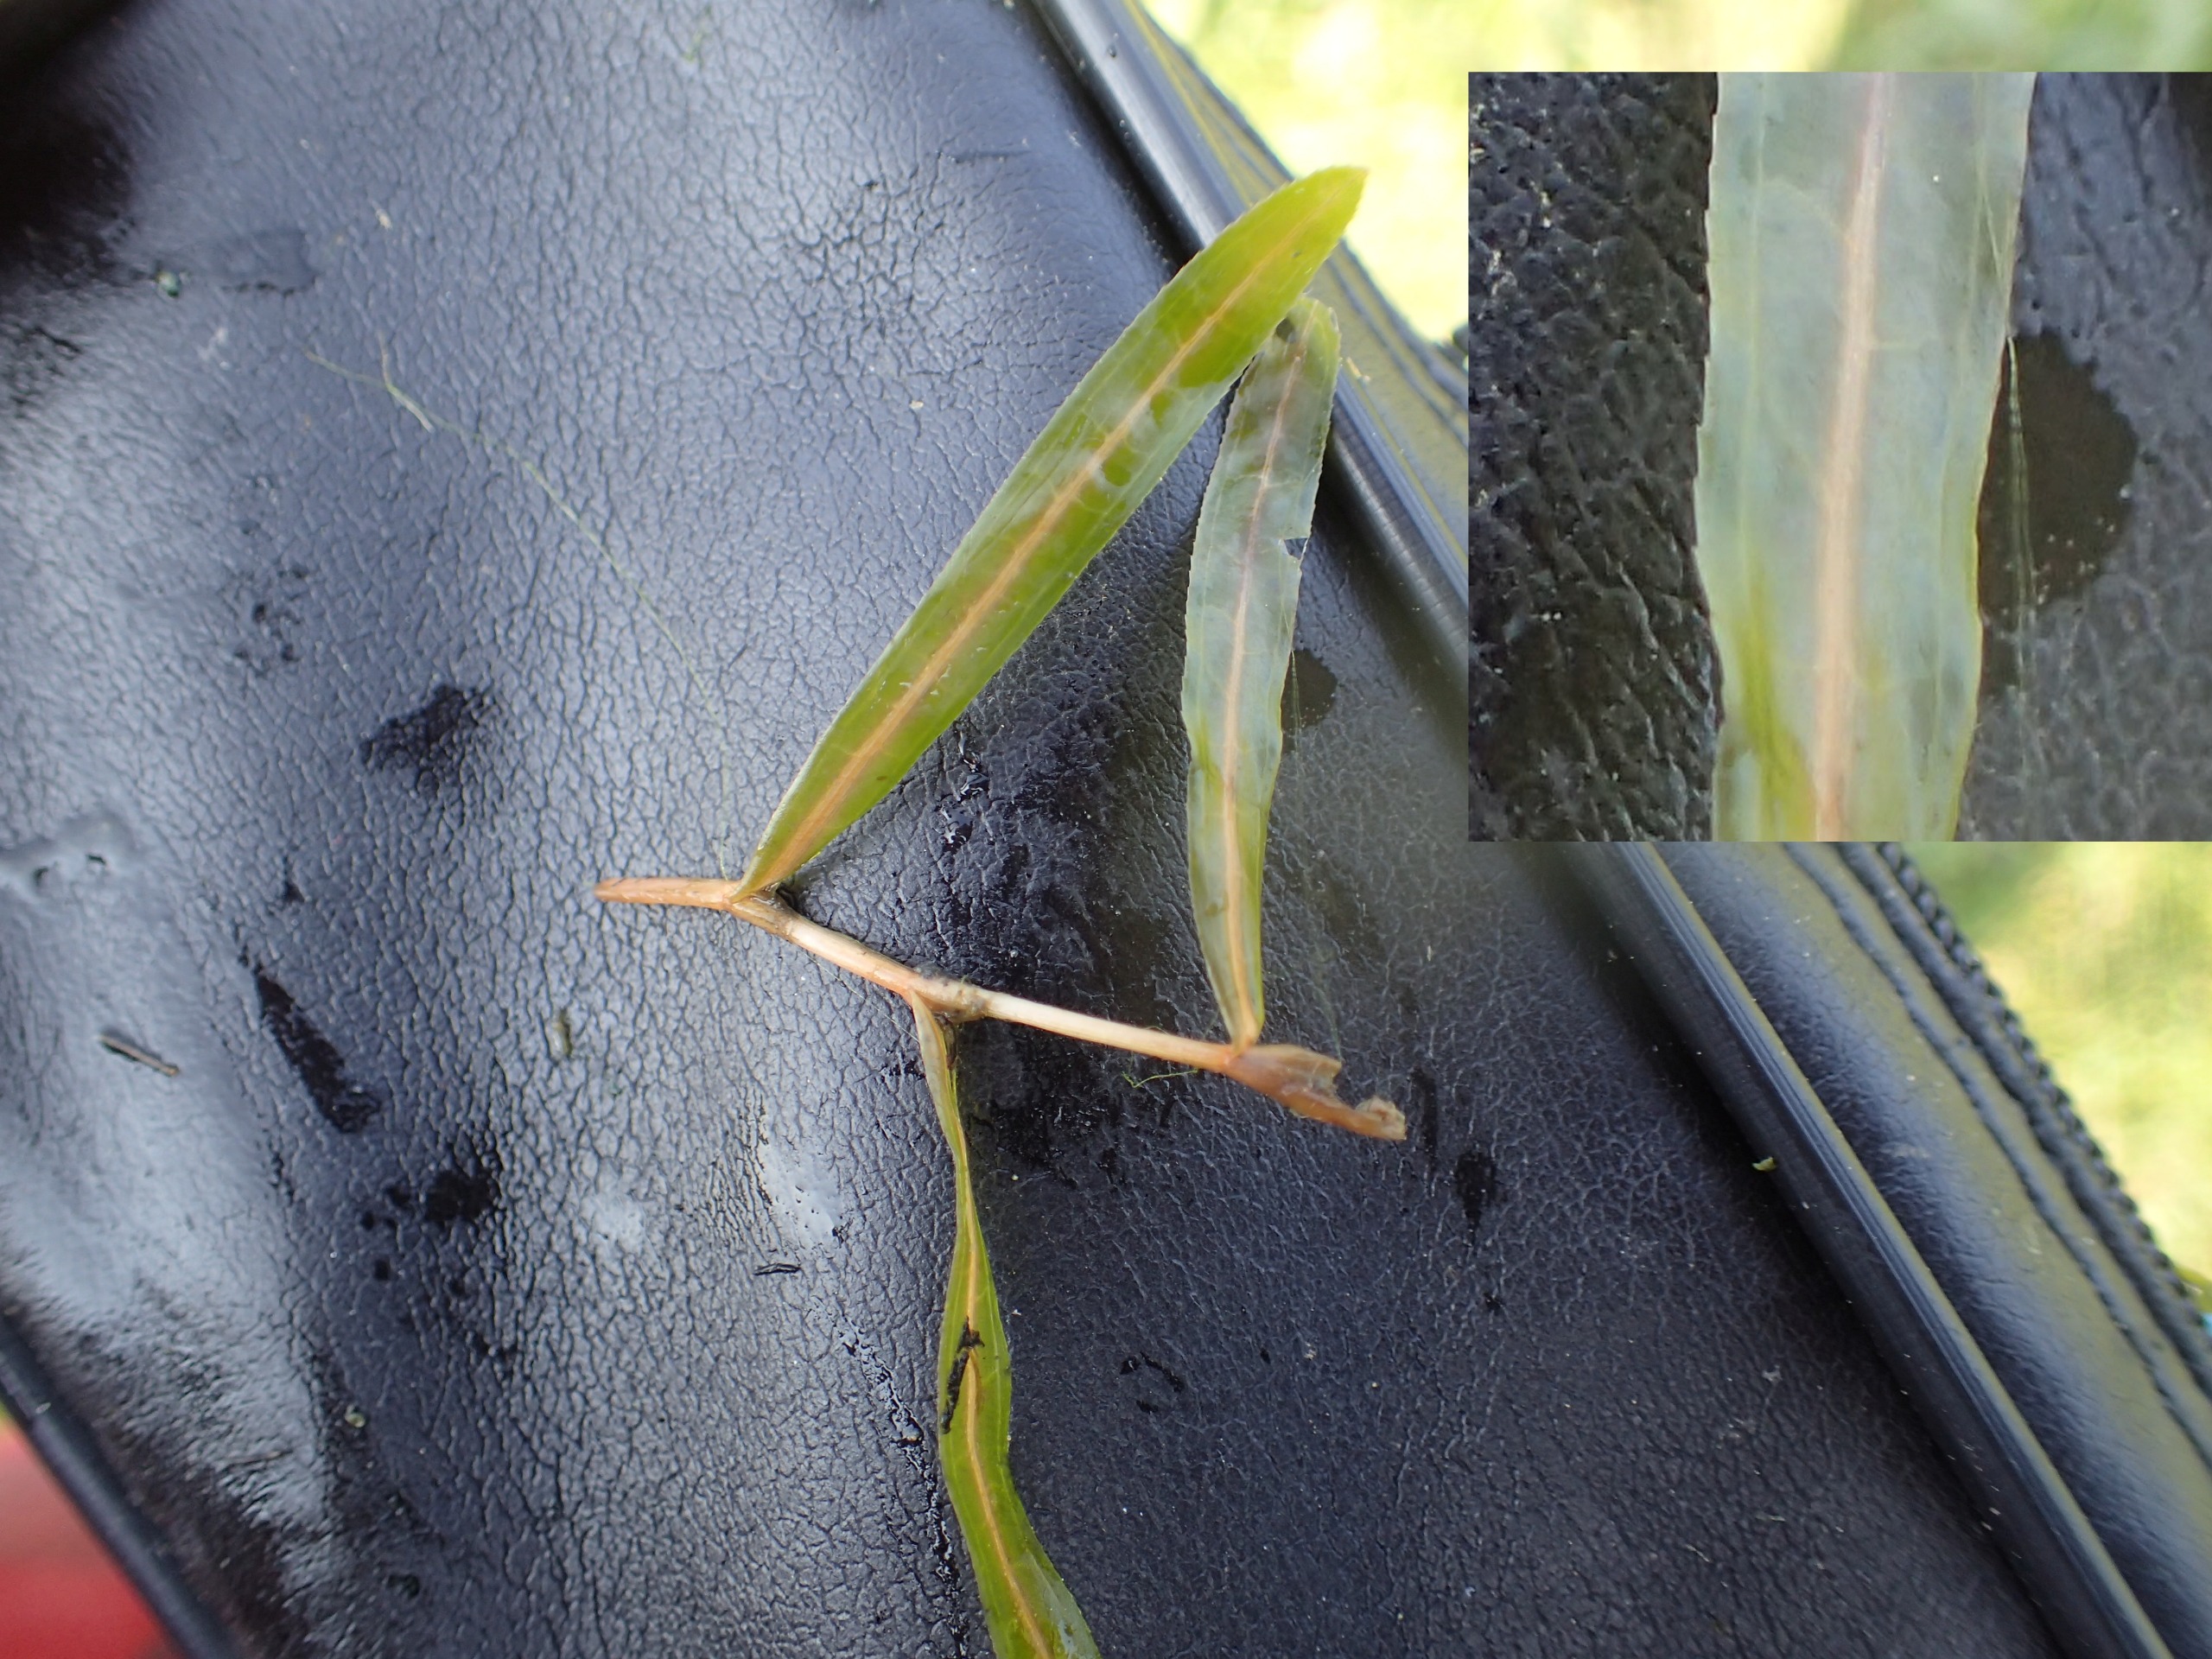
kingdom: Plantae
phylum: Tracheophyta
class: Liliopsida
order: Alismatales
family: Potamogetonaceae
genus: Potamogeton
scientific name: Potamogeton crispus
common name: Kruset vandaks
